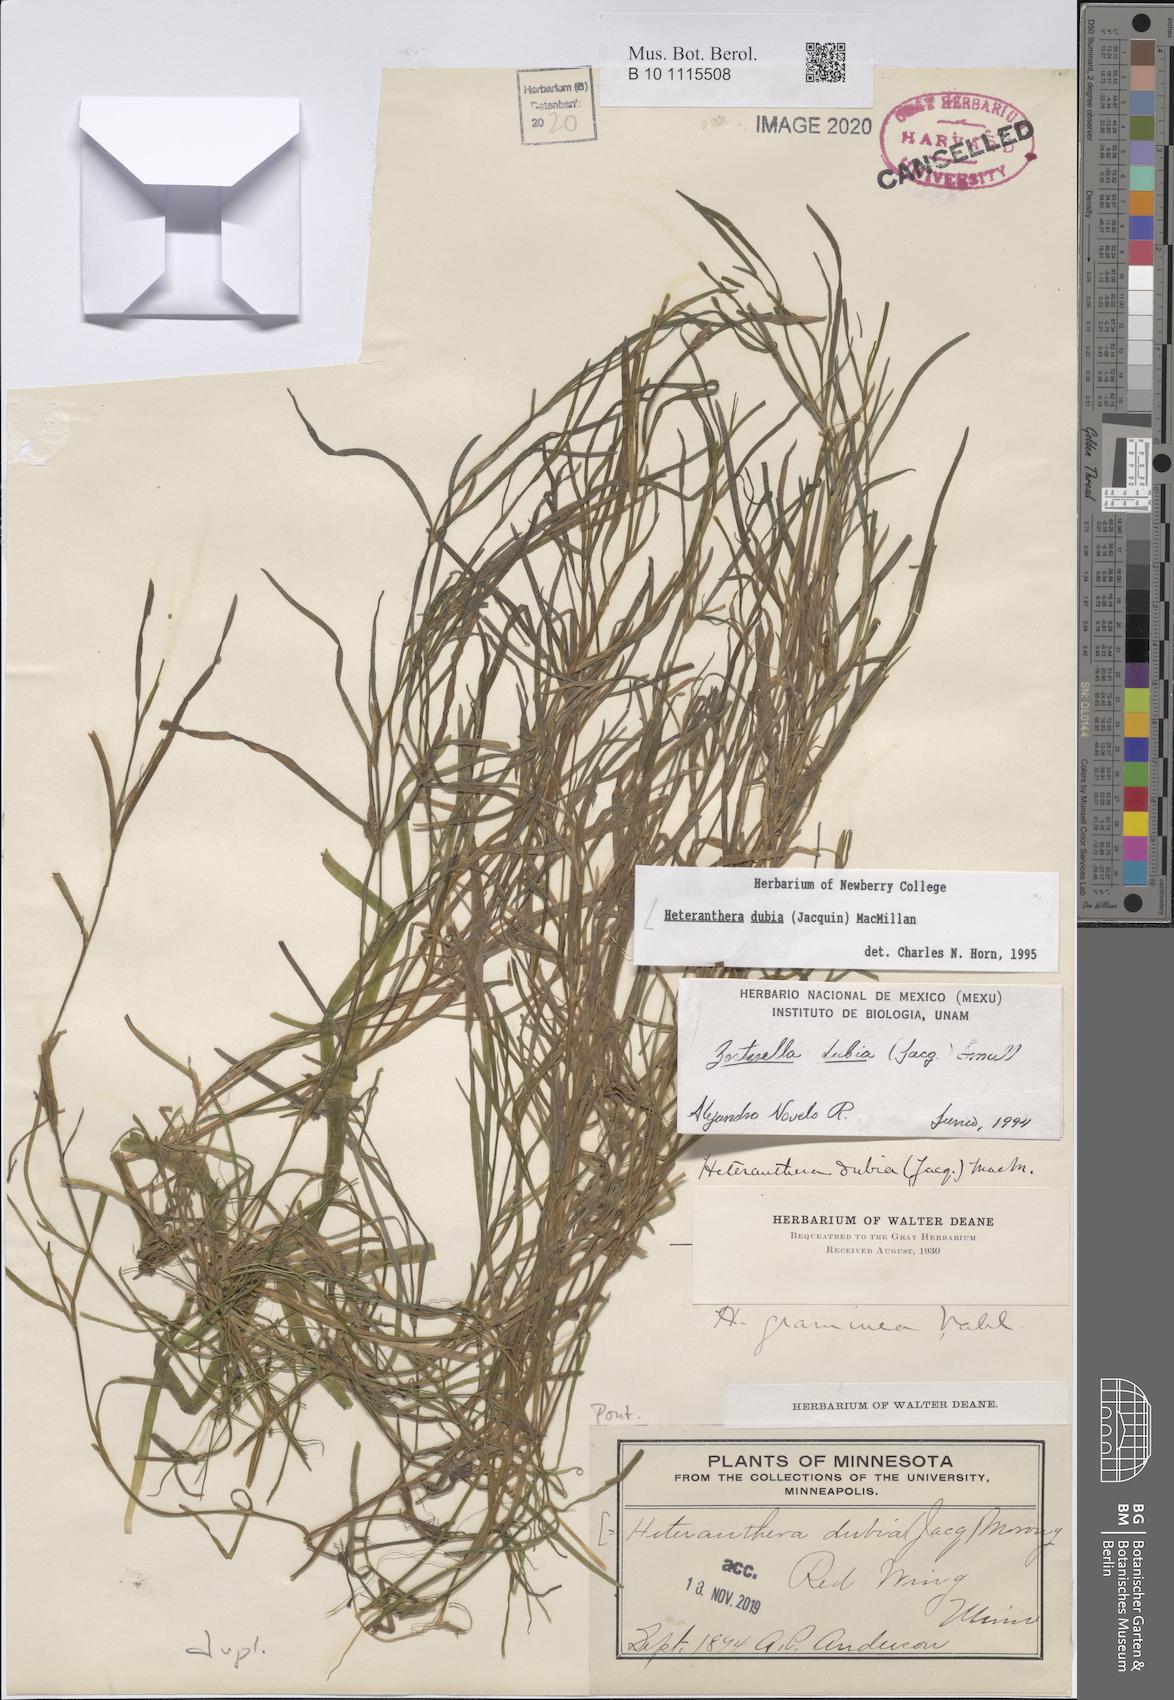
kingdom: Plantae
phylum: Tracheophyta
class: Liliopsida
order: Commelinales
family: Pontederiaceae
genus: Heteranthera
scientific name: Heteranthera dubia
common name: Grass-leaved mud plantain
